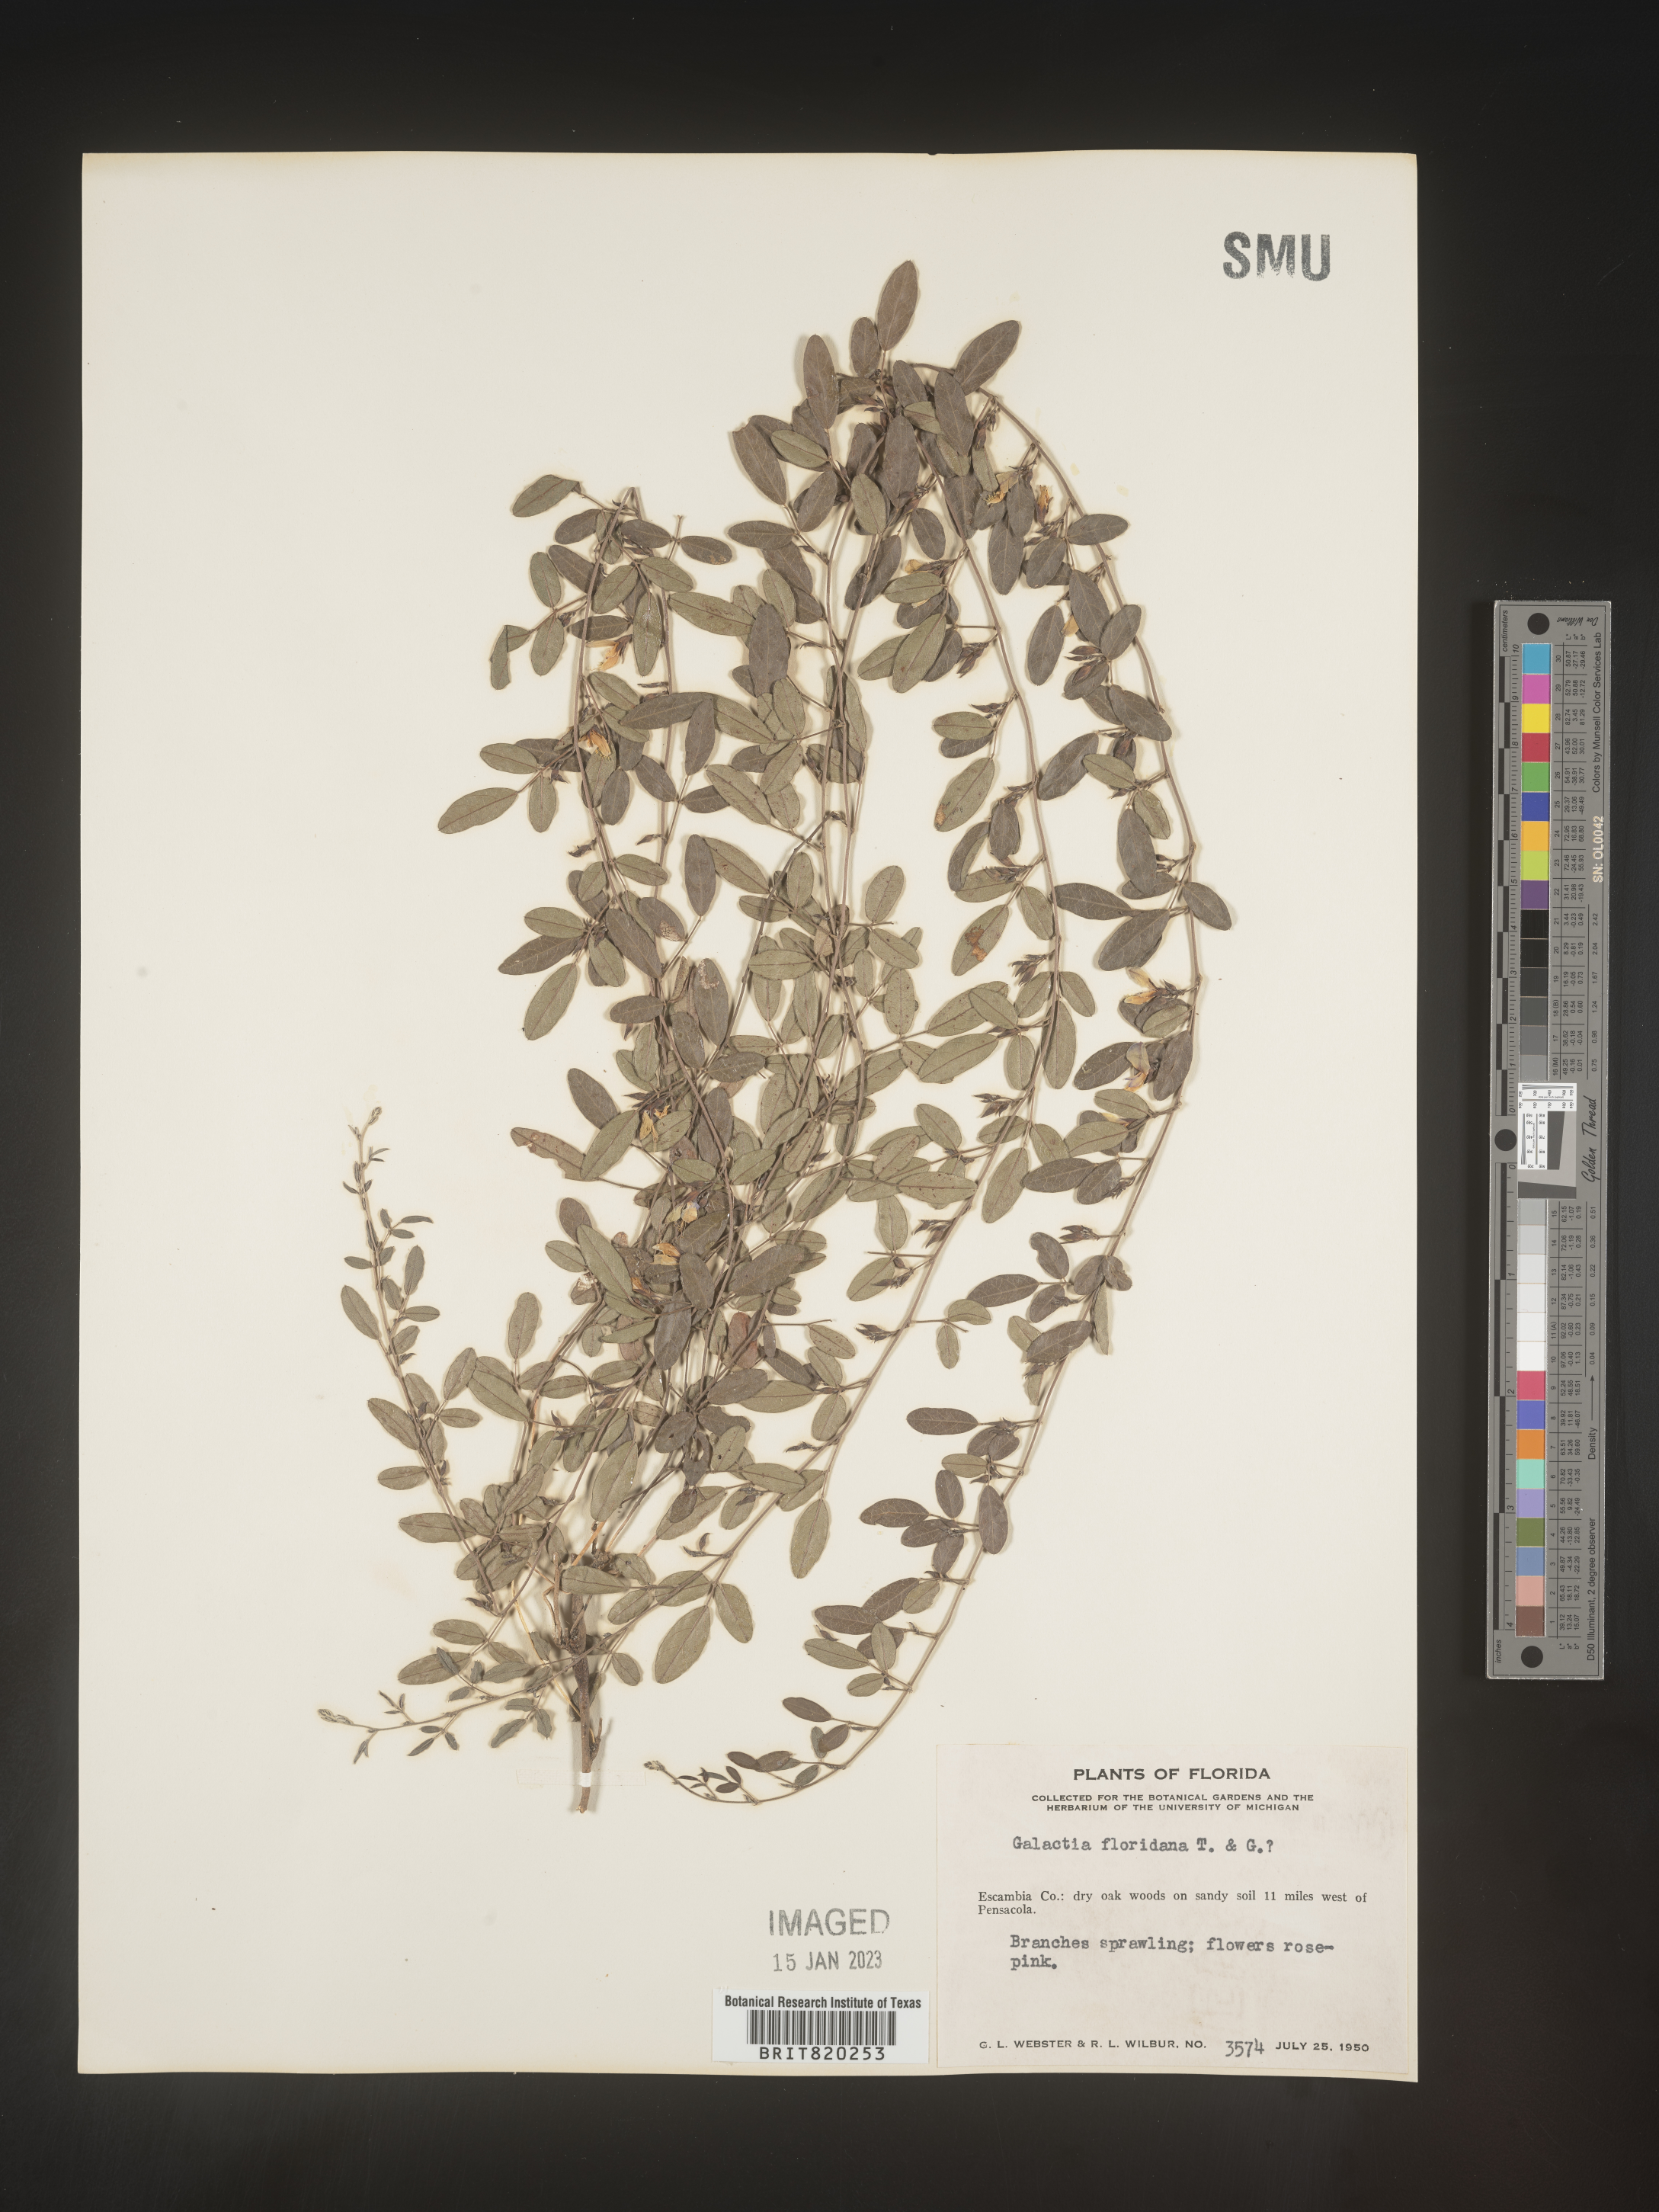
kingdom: Plantae
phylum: Tracheophyta
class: Magnoliopsida
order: Fabales
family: Fabaceae
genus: Galactia
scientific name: Galactia microphylla
